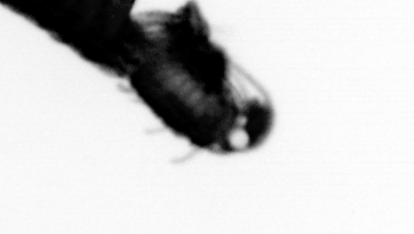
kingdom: Animalia
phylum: Annelida
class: Polychaeta
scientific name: Polychaeta
